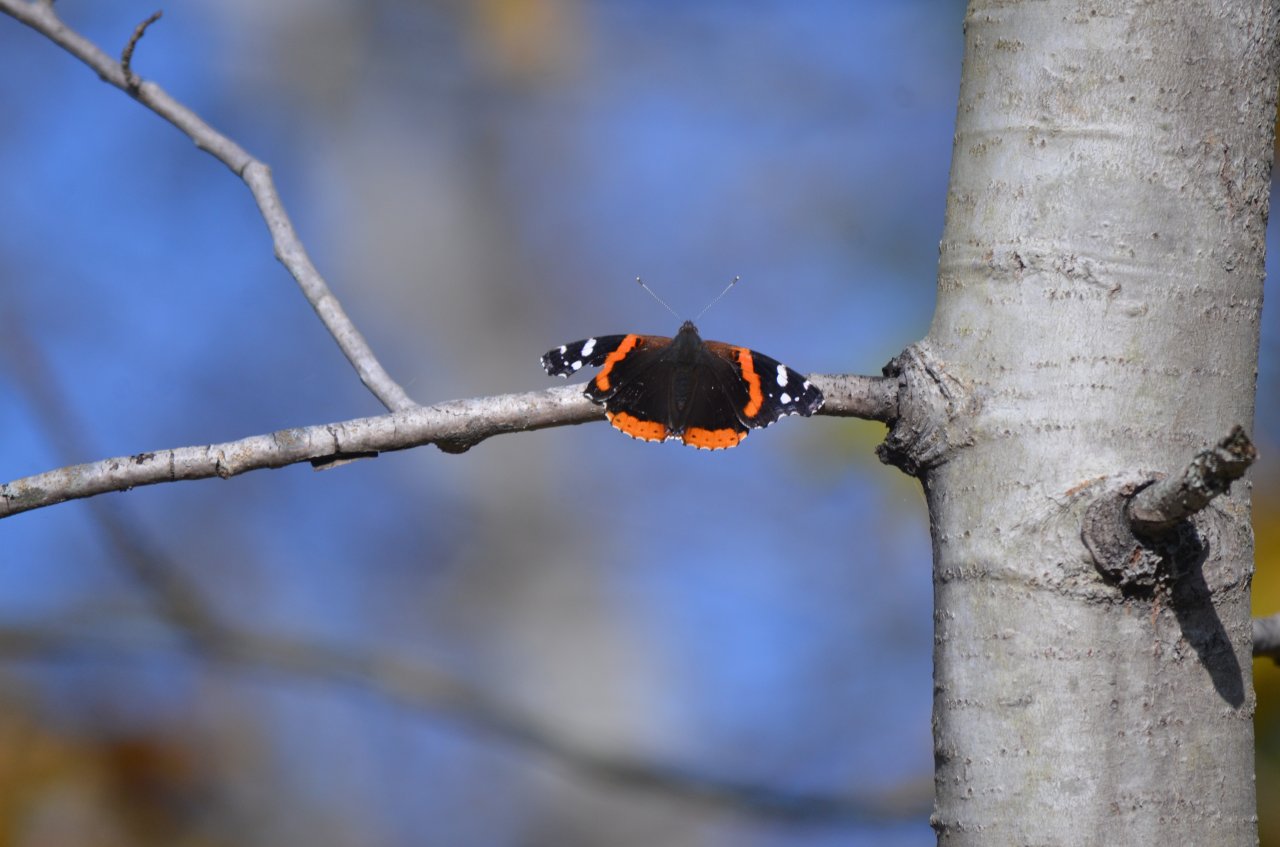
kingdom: Animalia
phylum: Arthropoda
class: Insecta
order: Lepidoptera
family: Nymphalidae
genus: Vanessa
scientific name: Vanessa atalanta
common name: Red Admiral
